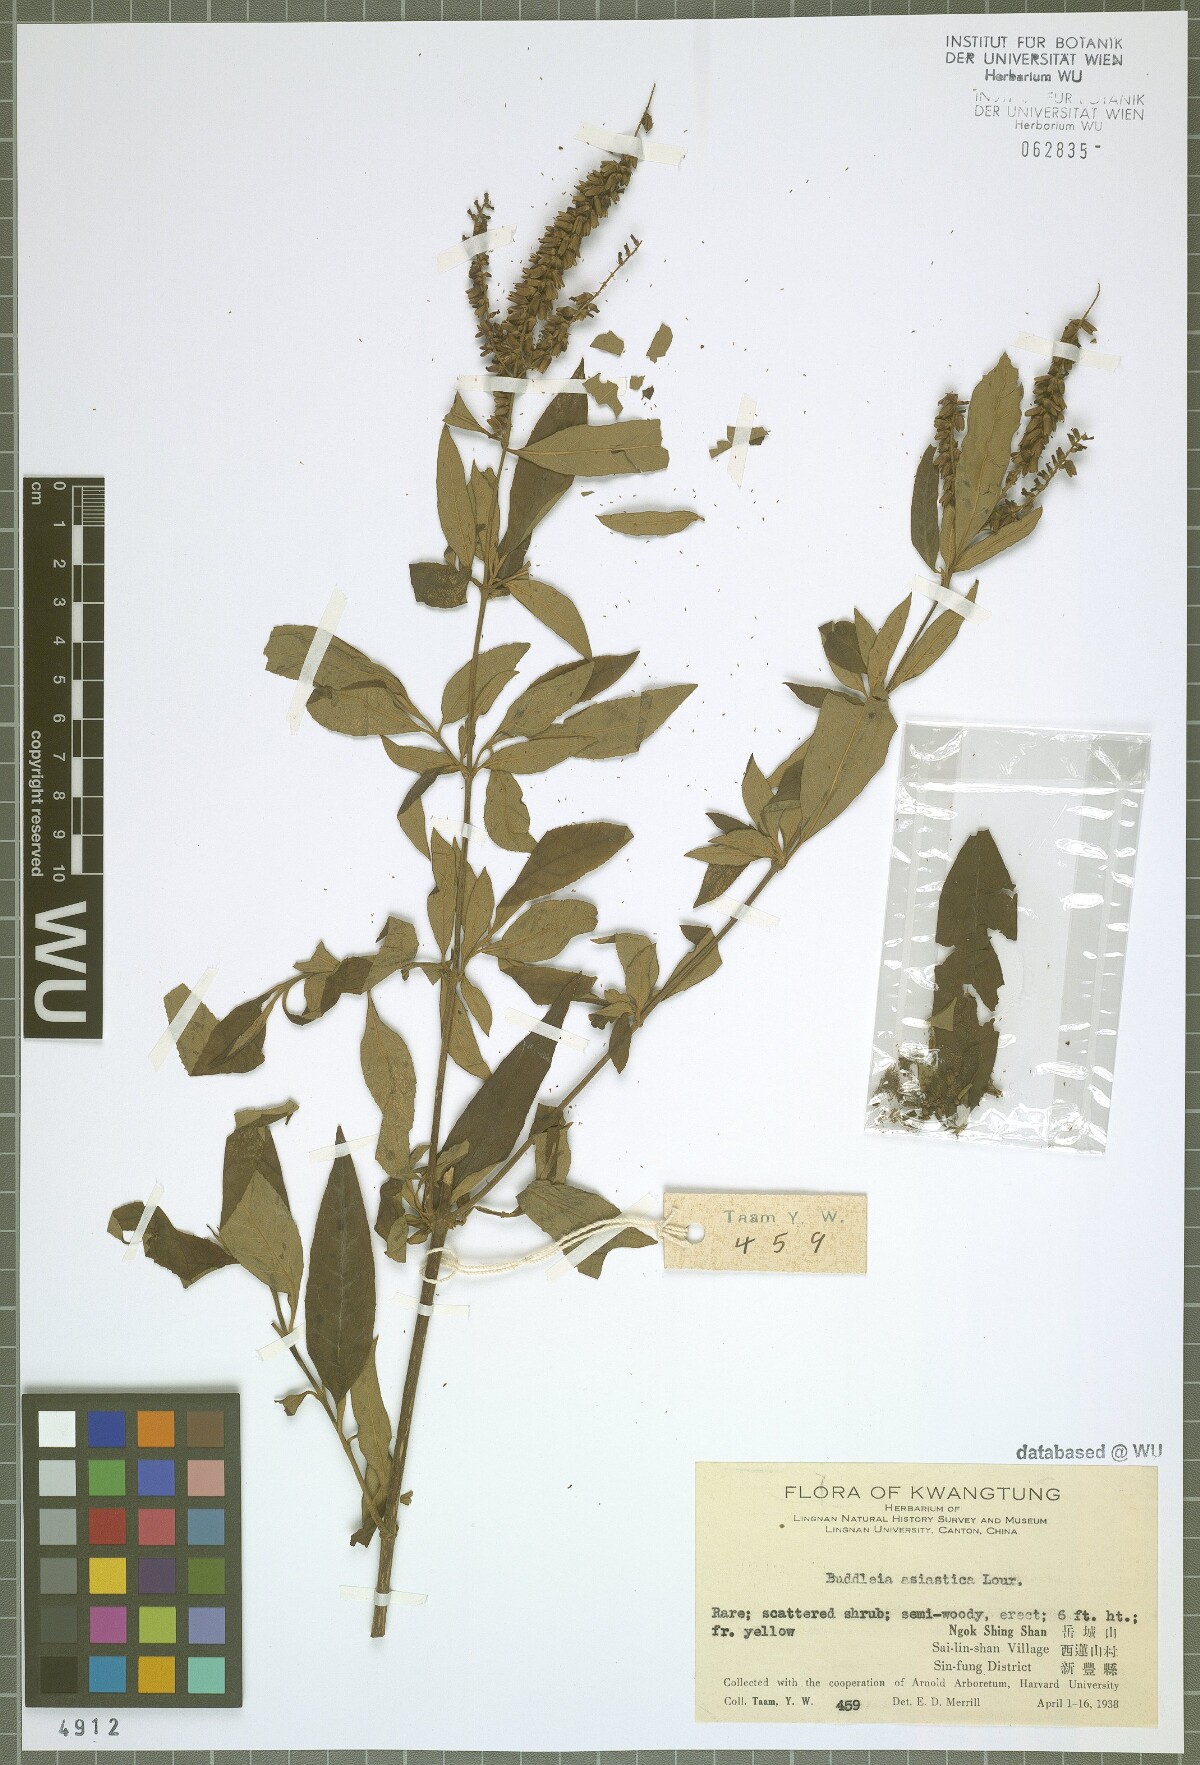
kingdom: Plantae
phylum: Tracheophyta
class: Magnoliopsida
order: Lamiales
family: Scrophulariaceae
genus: Buddleja
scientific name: Buddleja asiatica
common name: Dog tail
